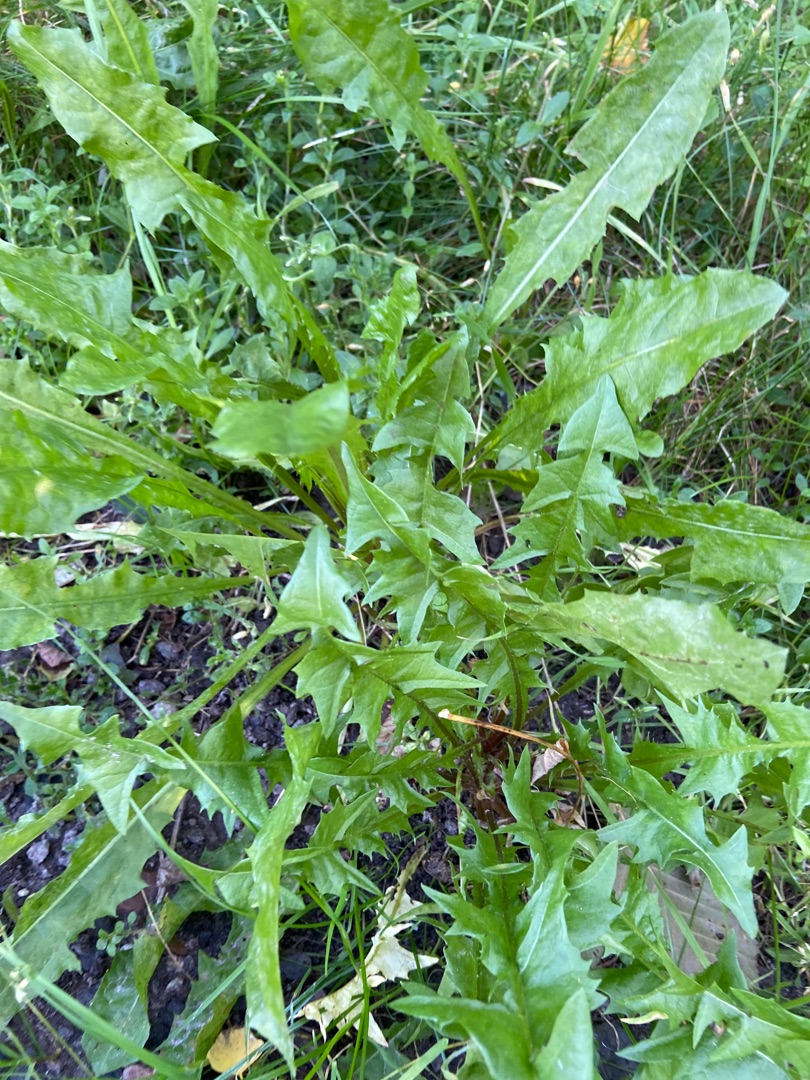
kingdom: Plantae
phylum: Tracheophyta
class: Magnoliopsida
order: Asterales
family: Asteraceae
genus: Taraxacum
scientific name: Taraxacum
